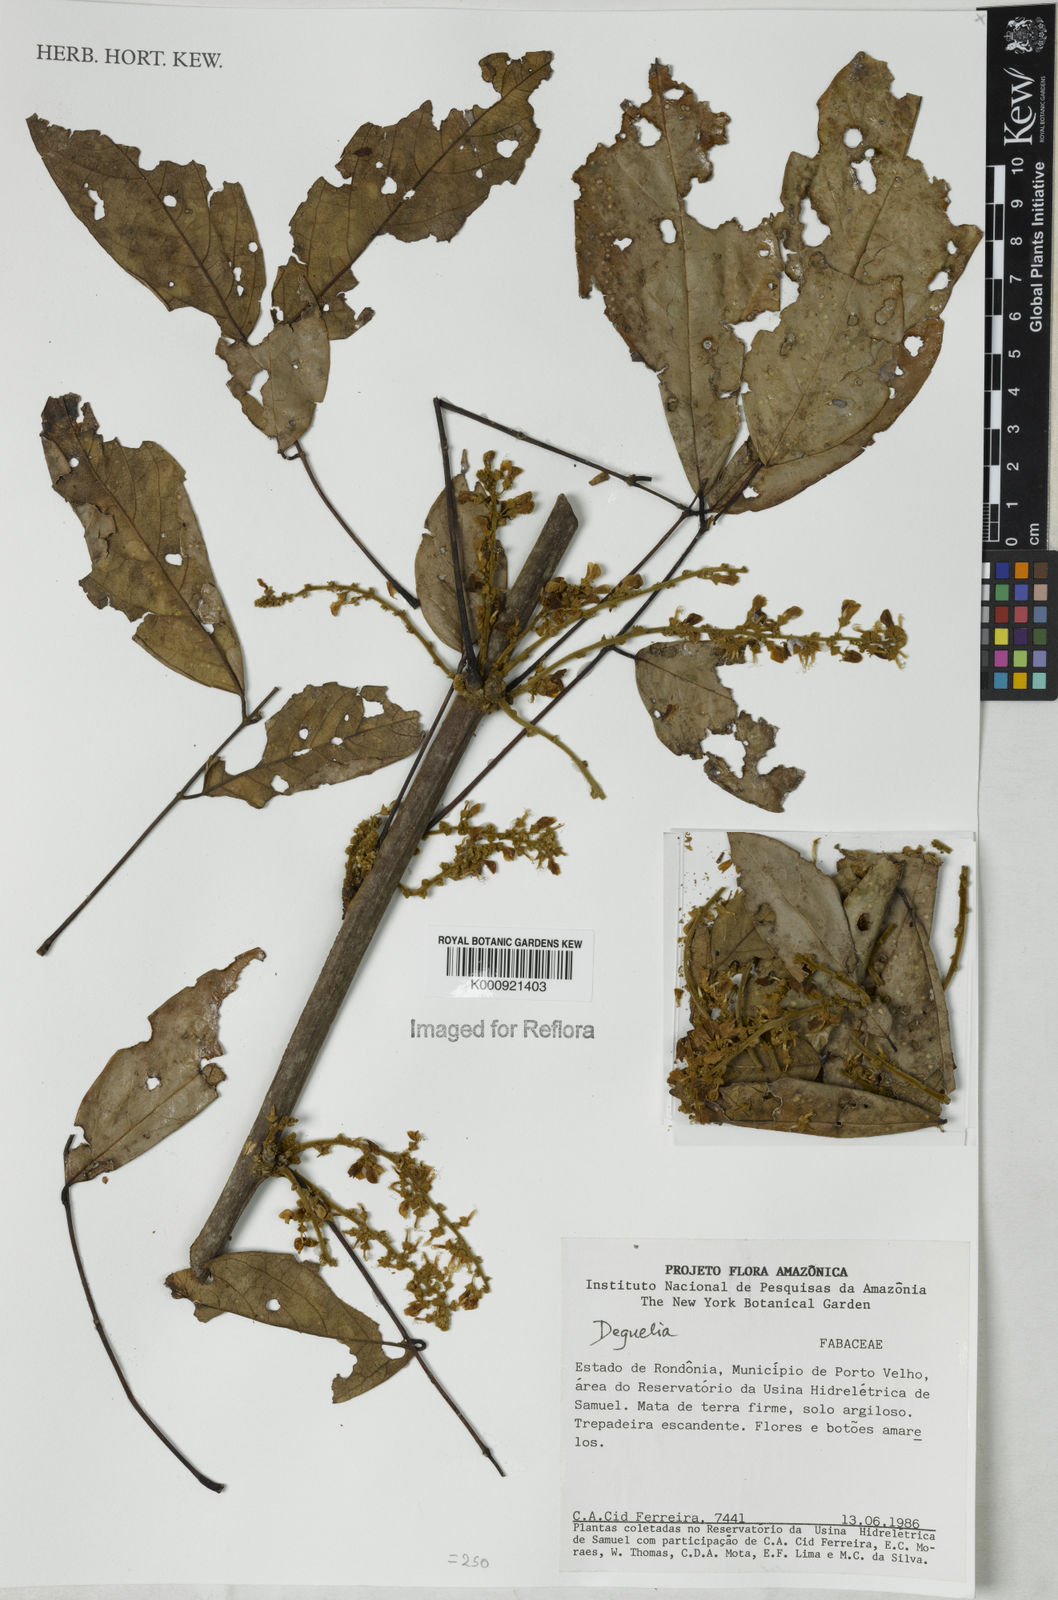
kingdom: Plantae
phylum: Tracheophyta
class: Magnoliopsida
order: Fabales
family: Fabaceae
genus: Deguelia
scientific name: Deguelia
